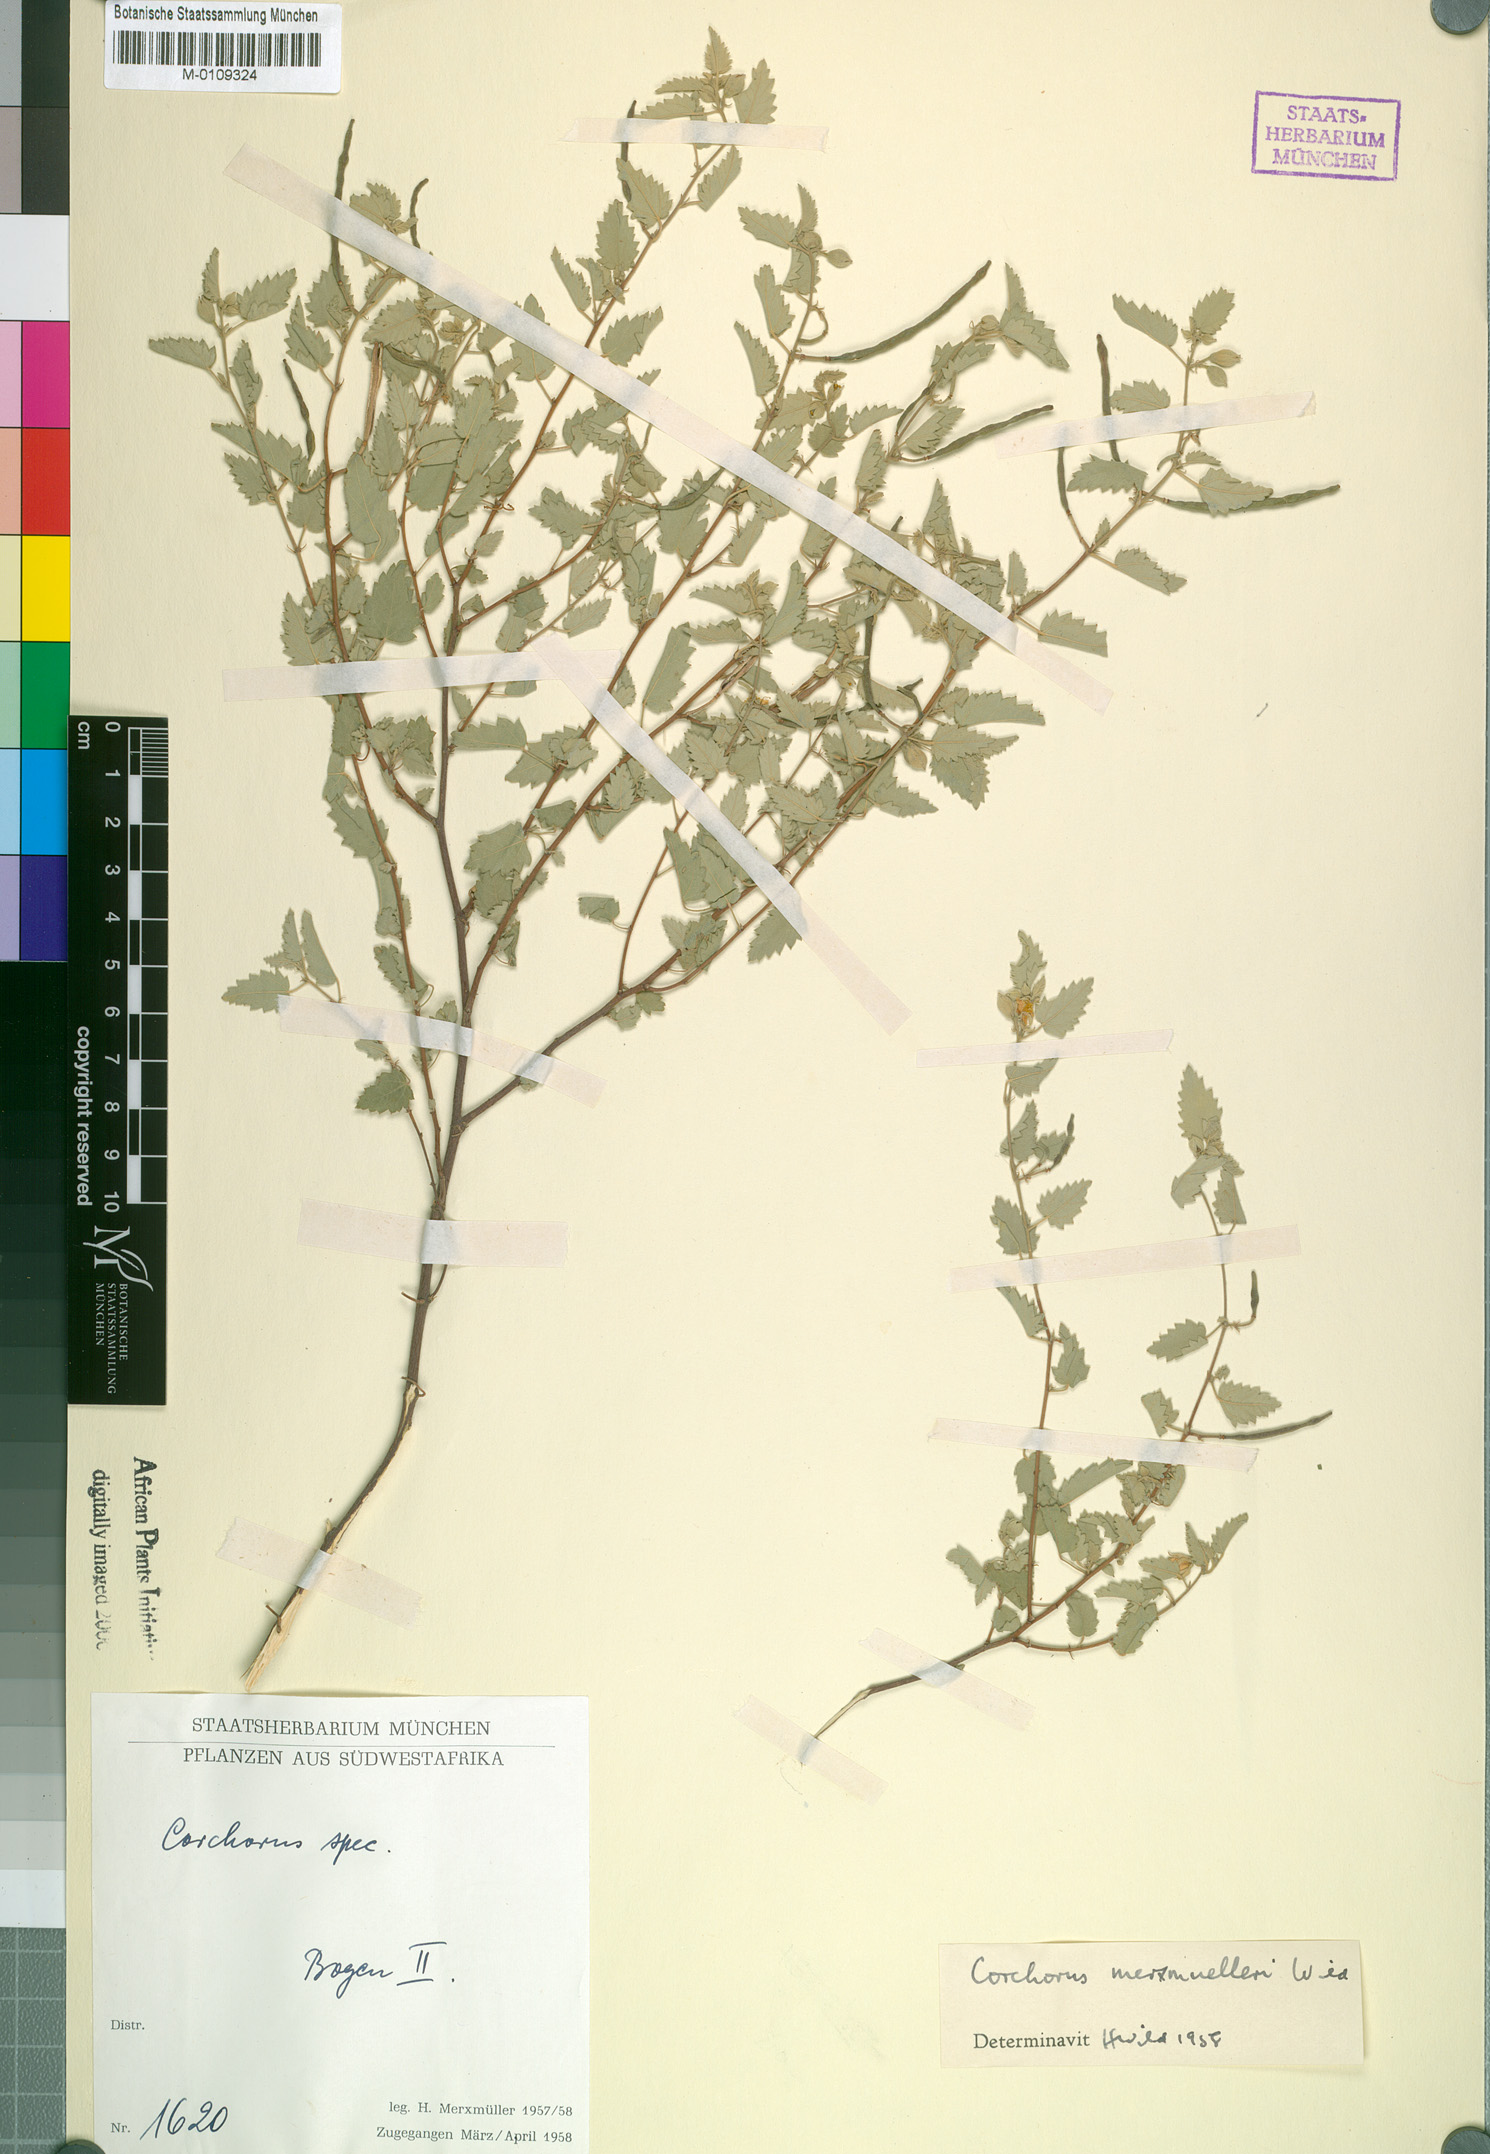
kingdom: Plantae
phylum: Tracheophyta
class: Magnoliopsida
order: Malvales
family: Malvaceae
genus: Corchorus
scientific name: Corchorus merxmuelleri
